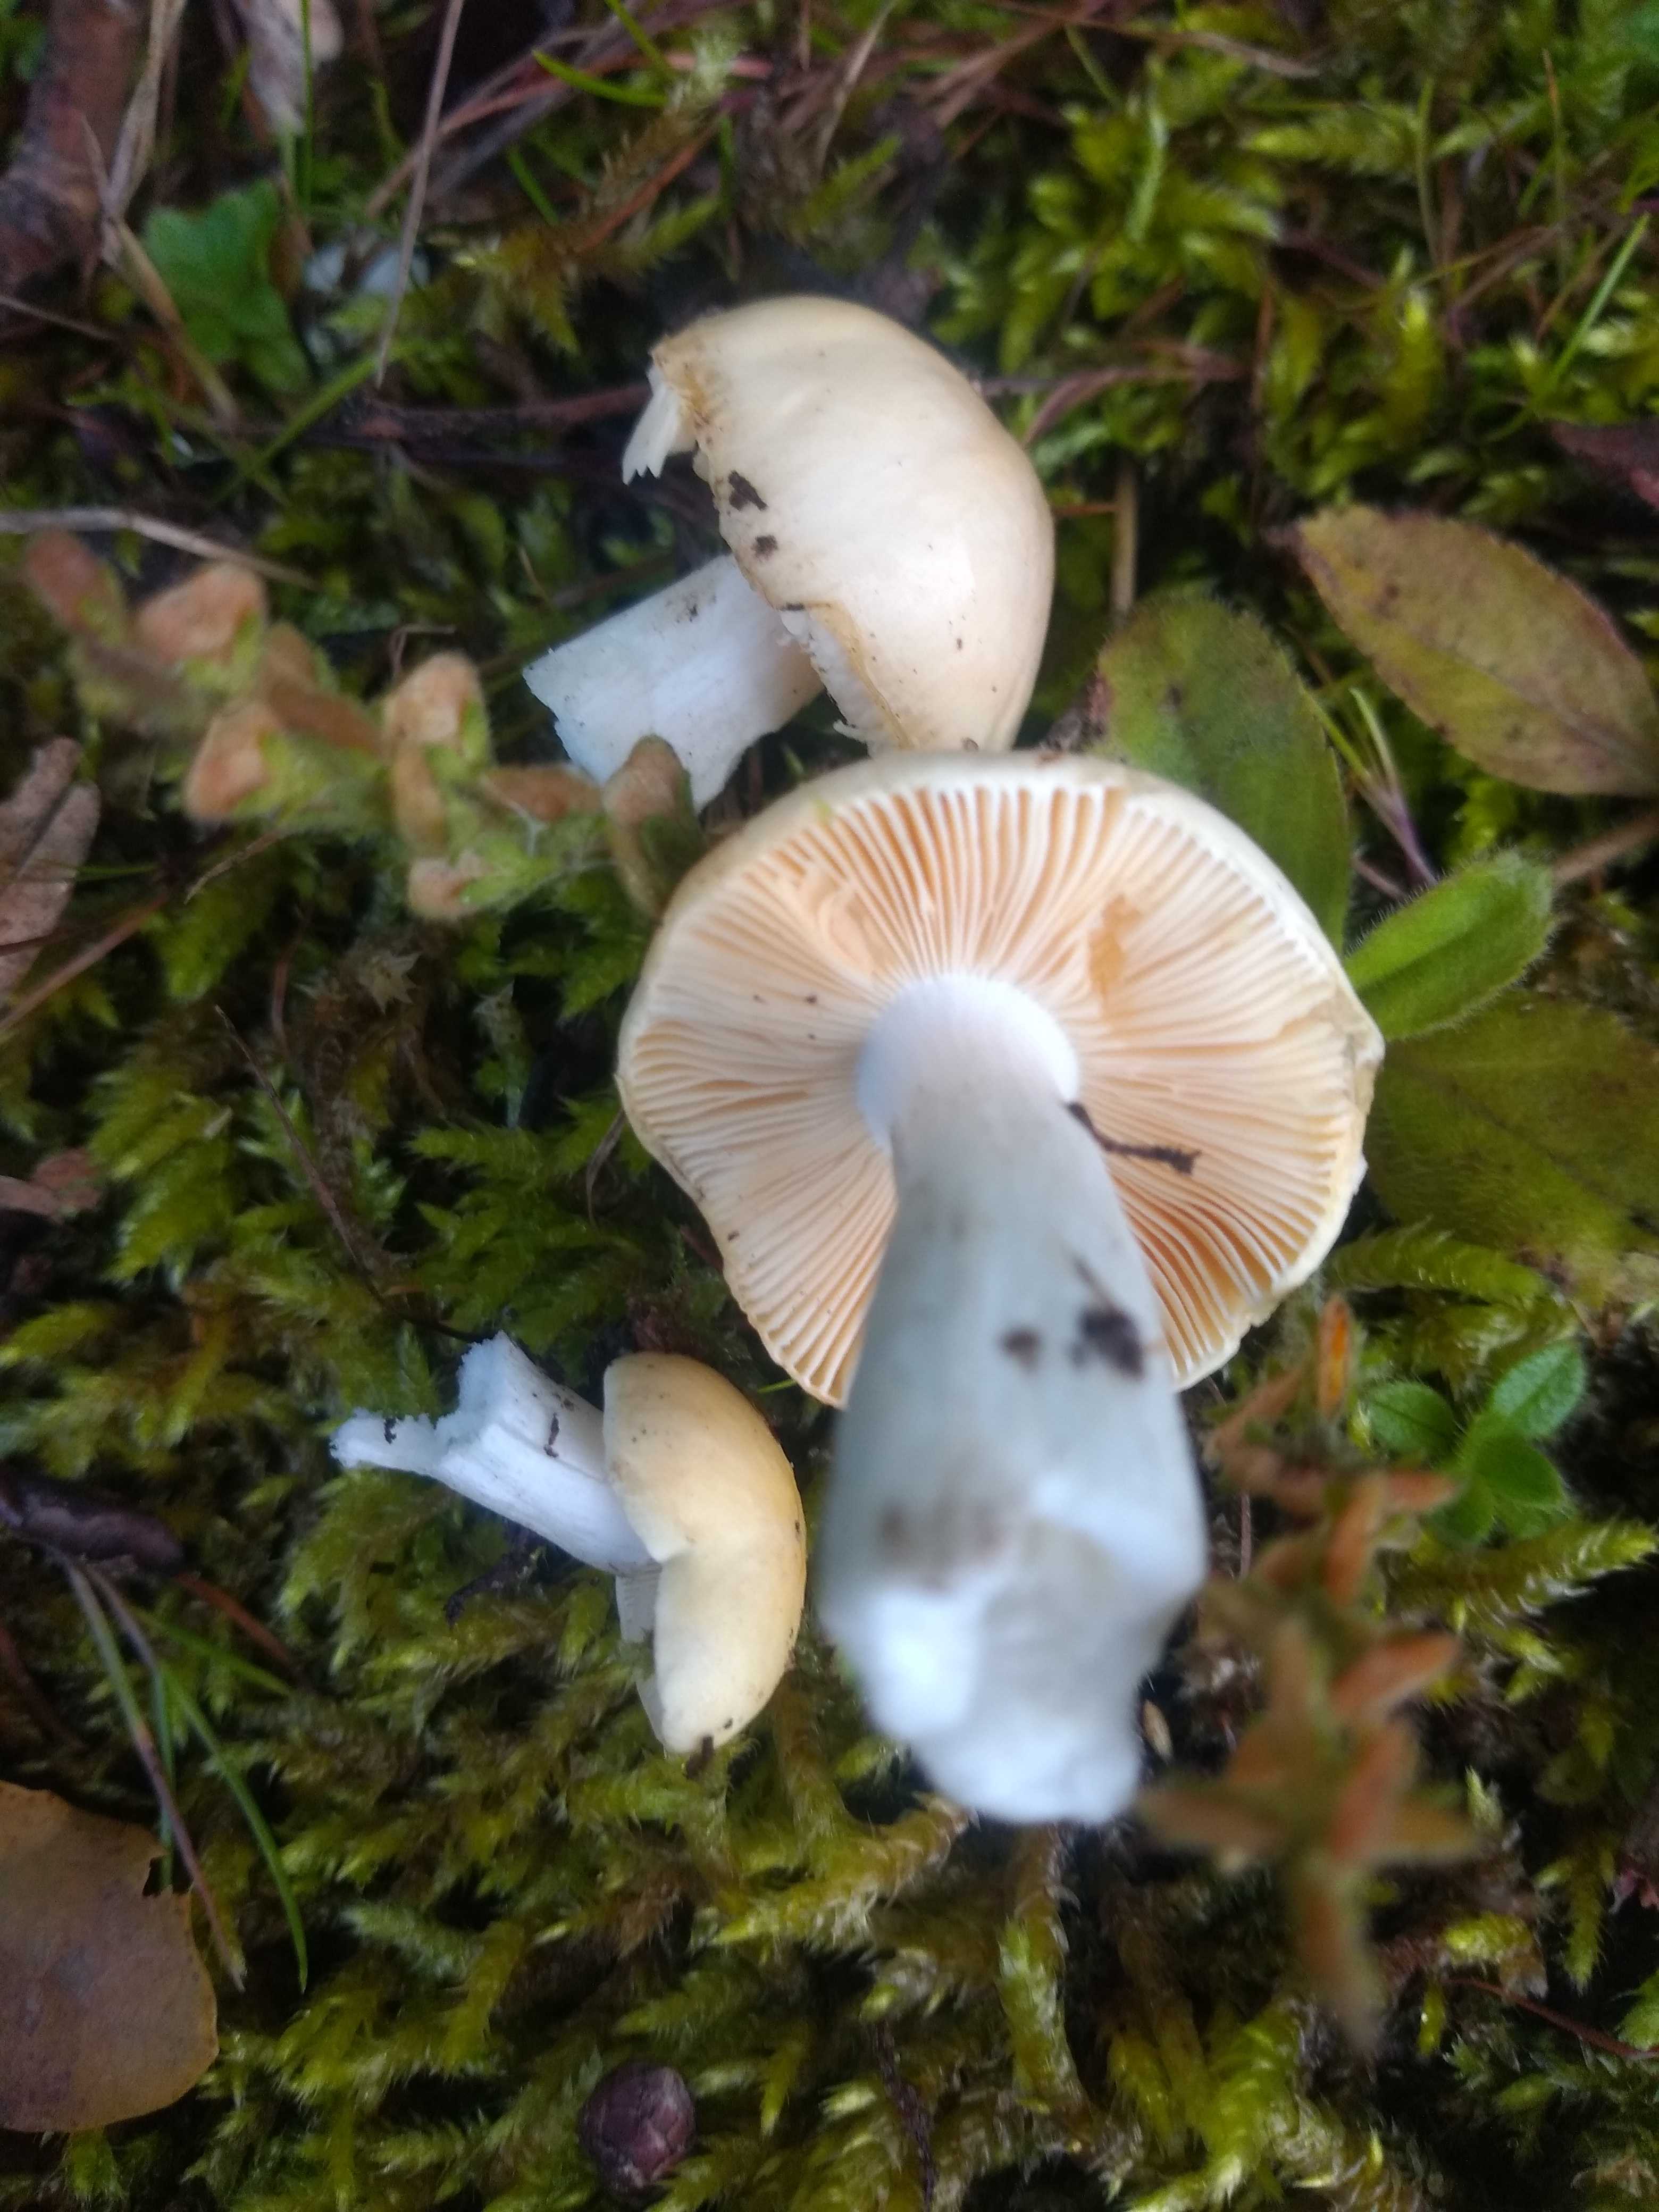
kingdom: Fungi
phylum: Basidiomycota
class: Agaricomycetes
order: Russulales
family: Russulaceae
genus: Russula
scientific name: Russula risigallina
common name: abrikos-skørhat
